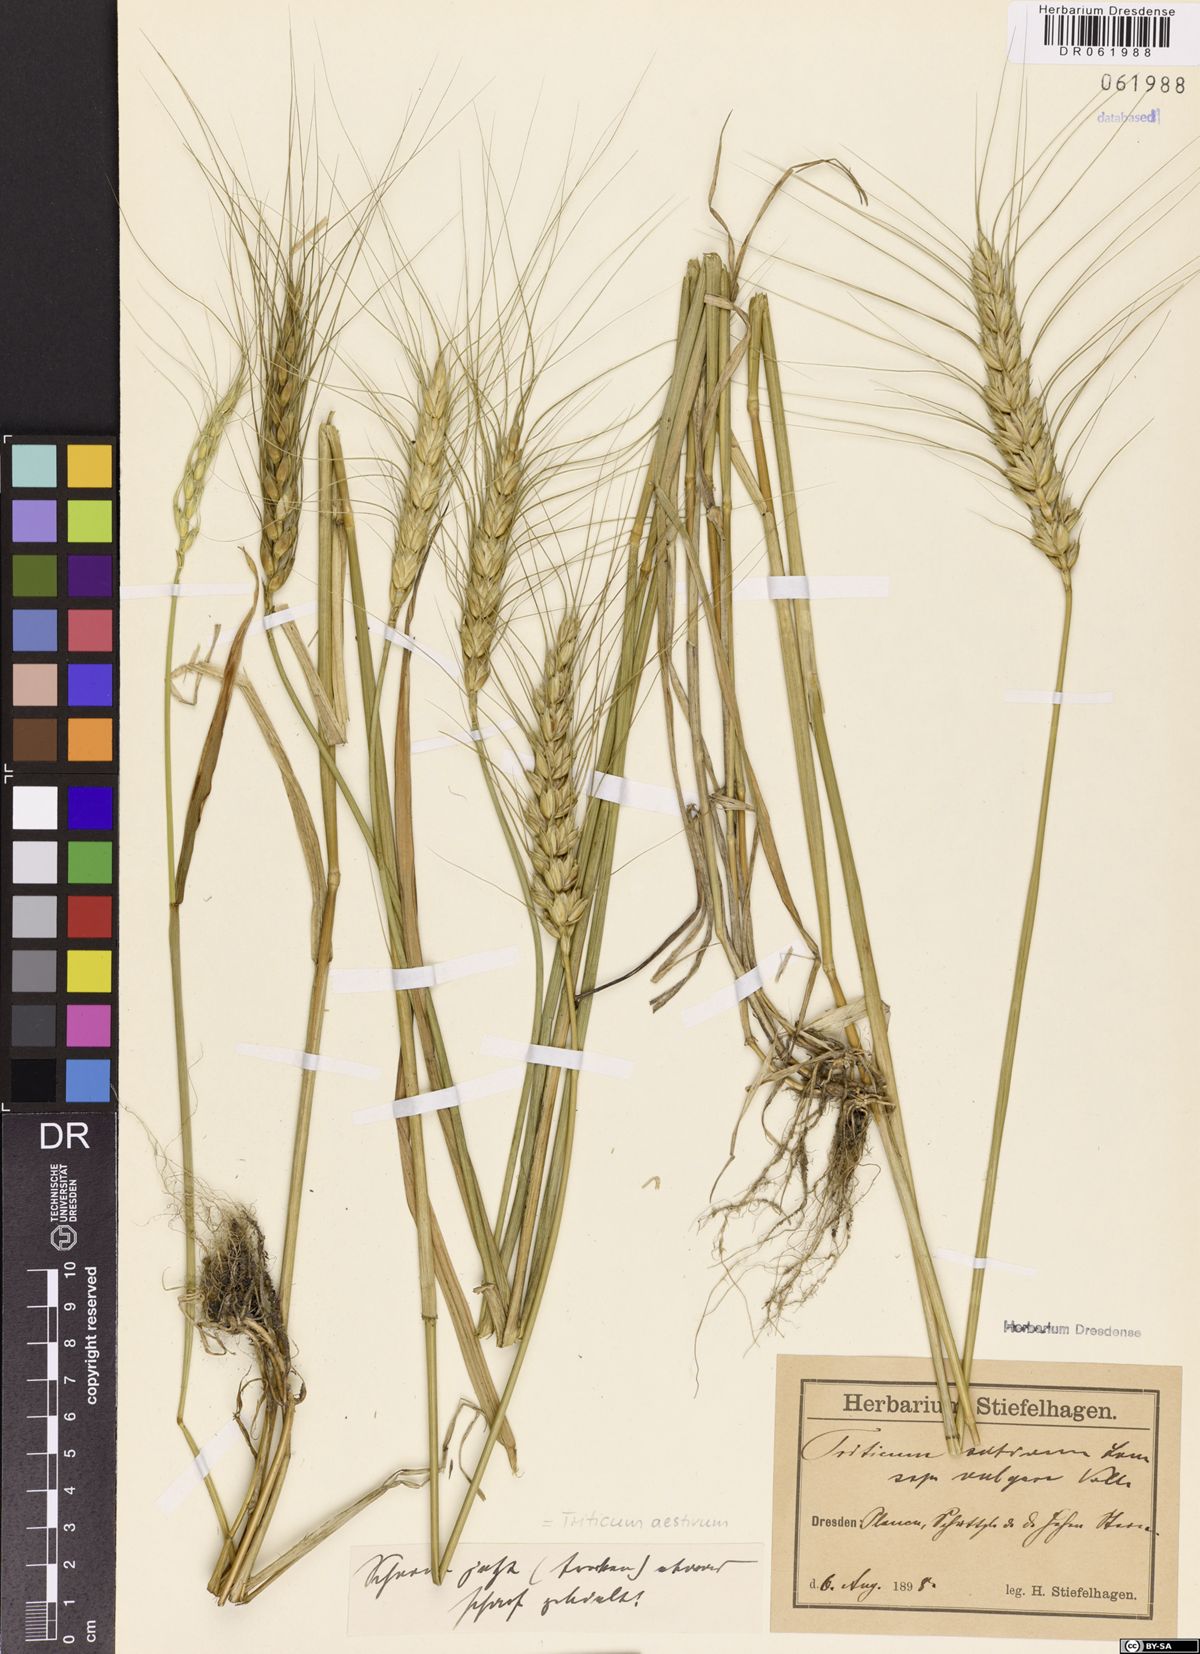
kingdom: Plantae
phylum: Tracheophyta
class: Liliopsida
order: Poales
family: Poaceae
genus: Triticum
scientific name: Triticum aestivum
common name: Common wheat
